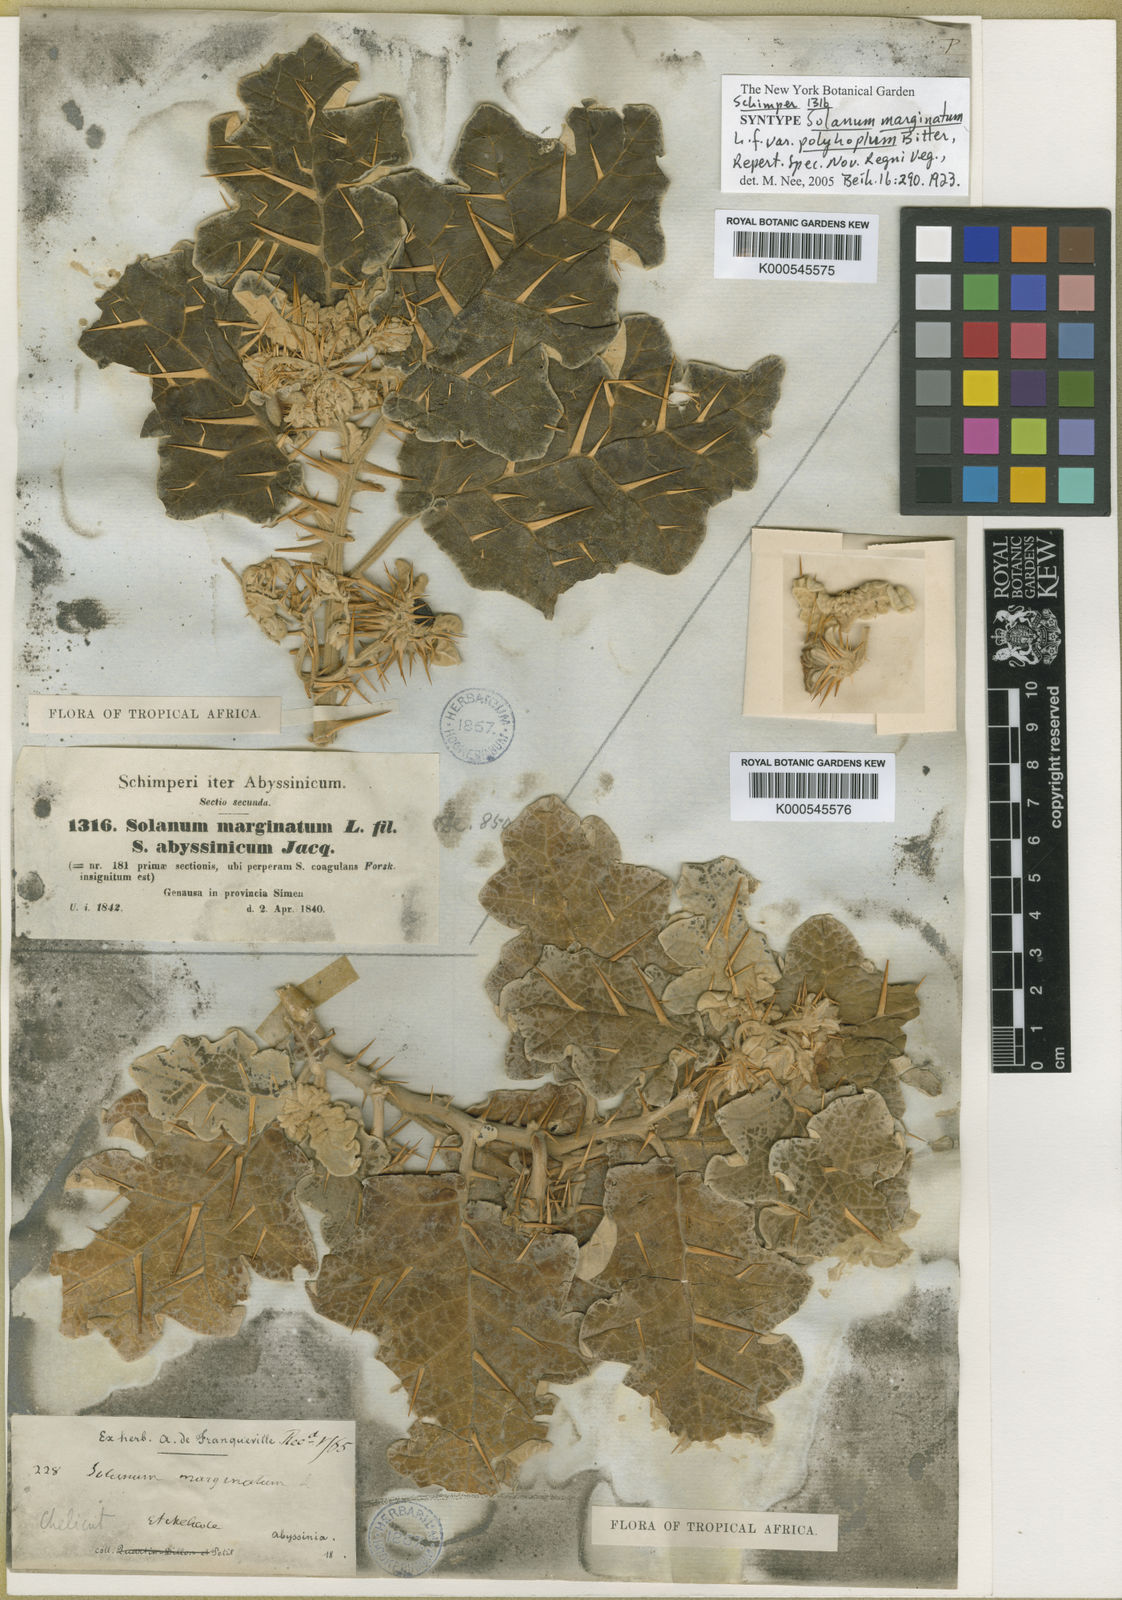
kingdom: Plantae
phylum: Tracheophyta
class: Magnoliopsida
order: Solanales
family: Solanaceae
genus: Solanum
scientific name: Solanum marginatum
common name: Purple african nightshade
